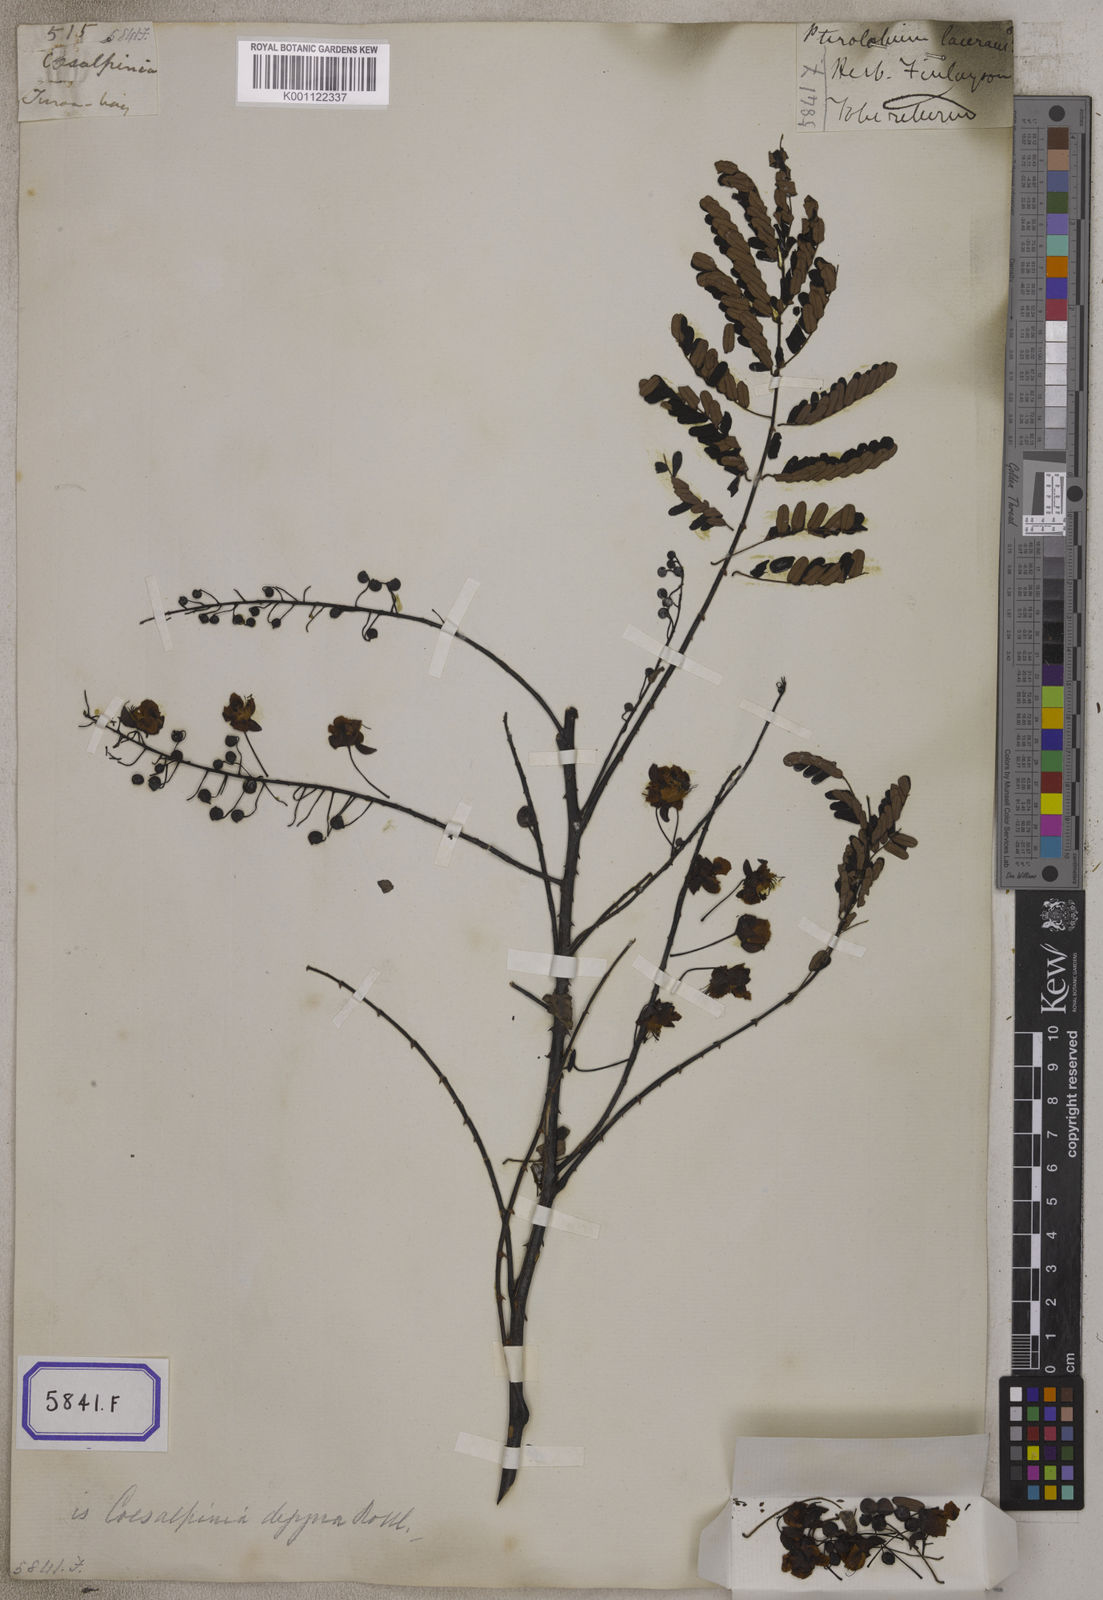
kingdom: Plantae
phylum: Tracheophyta
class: Magnoliopsida
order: Fabales
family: Fabaceae
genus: Pterolobium
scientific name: Pterolobium hexapetalum
